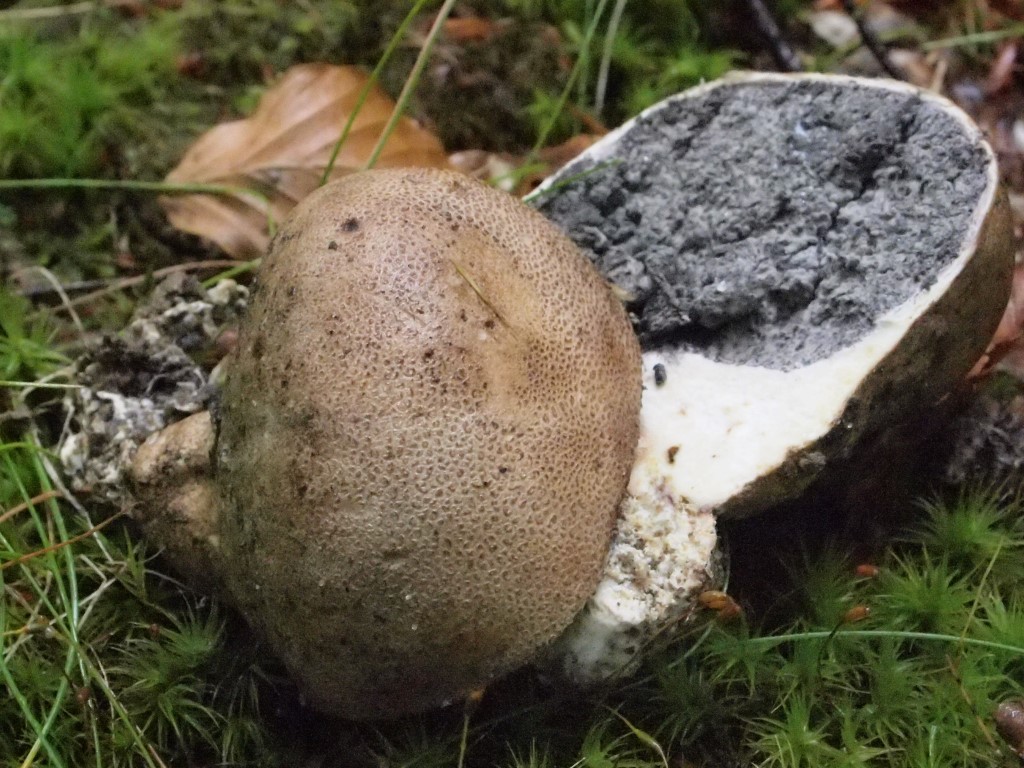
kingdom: Fungi
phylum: Basidiomycota
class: Agaricomycetes
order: Boletales
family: Sclerodermataceae
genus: Scleroderma
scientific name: Scleroderma areolatum
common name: plettet bruskbold
